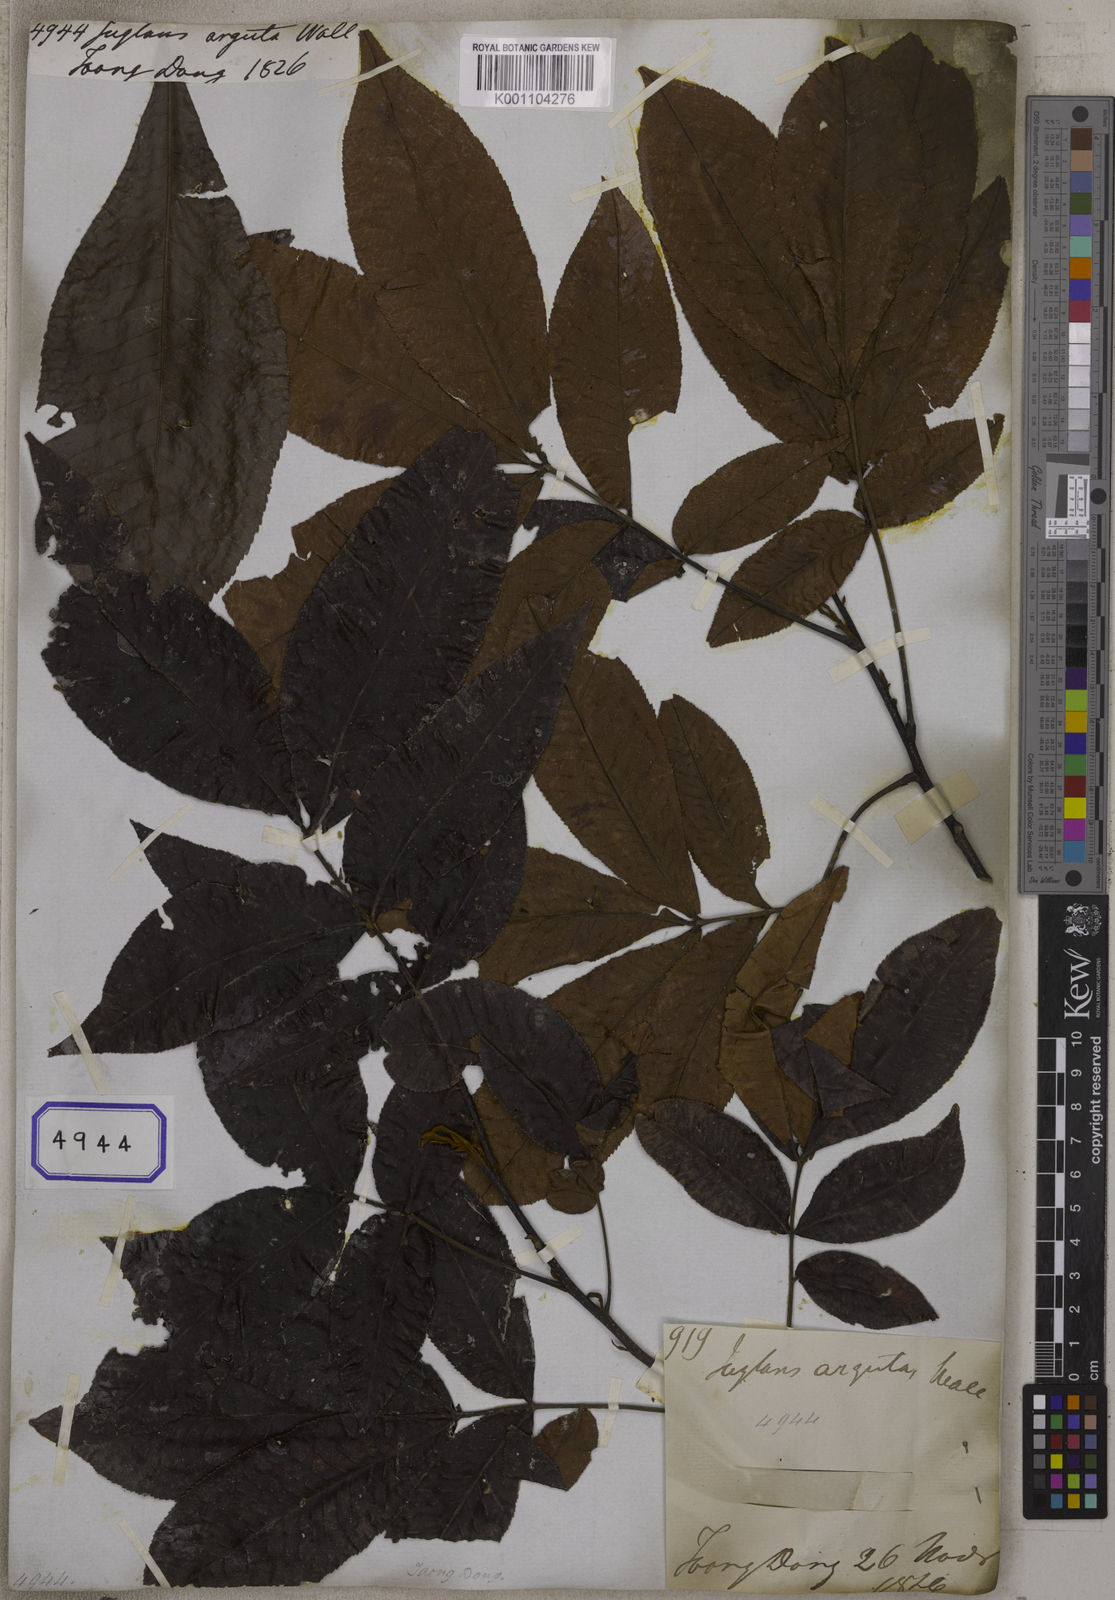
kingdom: Plantae
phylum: Tracheophyta
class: Magnoliopsida
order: Fagales
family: Juglandaceae
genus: Juglans
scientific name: Juglans
